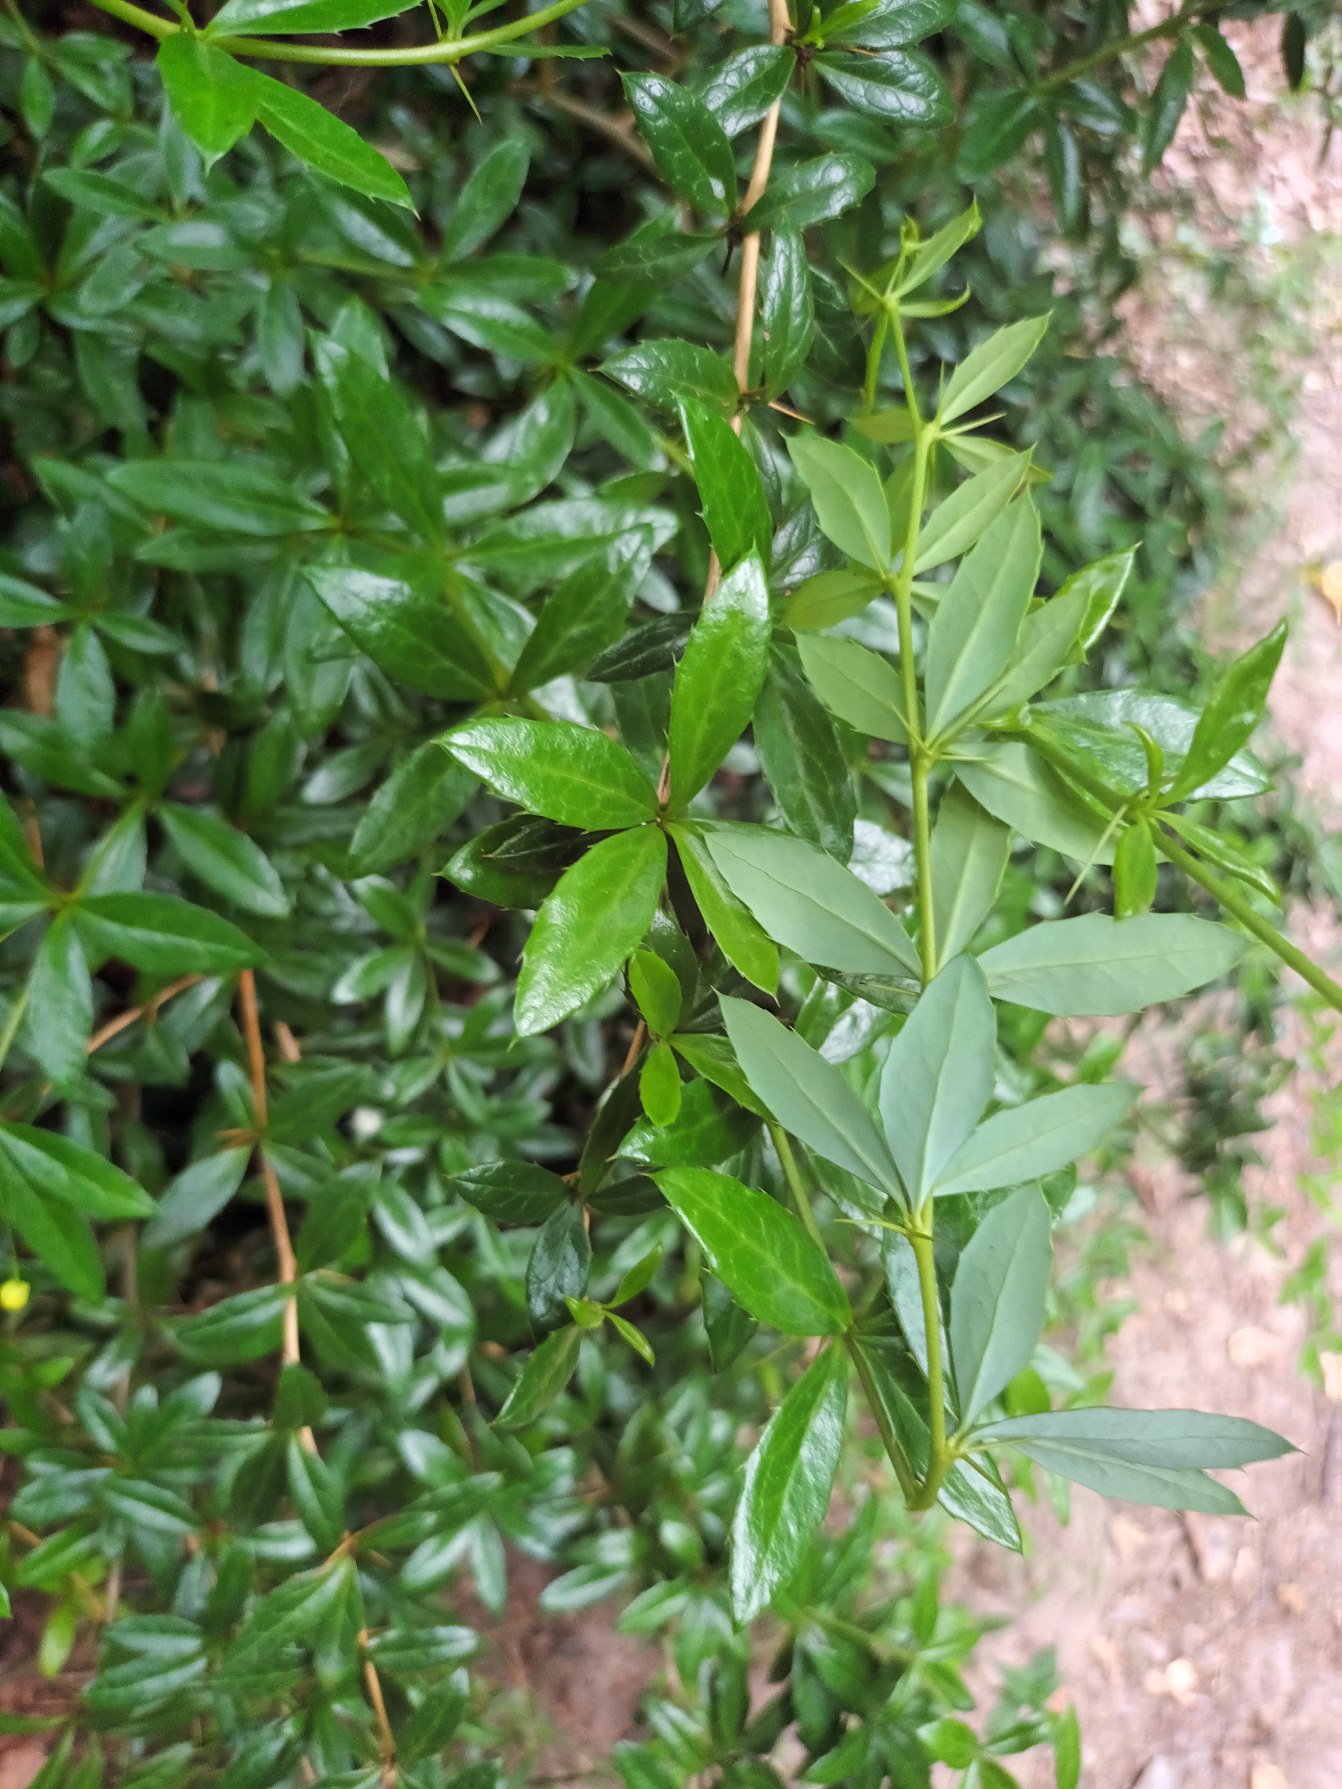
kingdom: Plantae
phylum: Tracheophyta
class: Magnoliopsida
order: Ranunculales
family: Berberidaceae
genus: Berberis
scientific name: Berberis hybridogagnepainii
